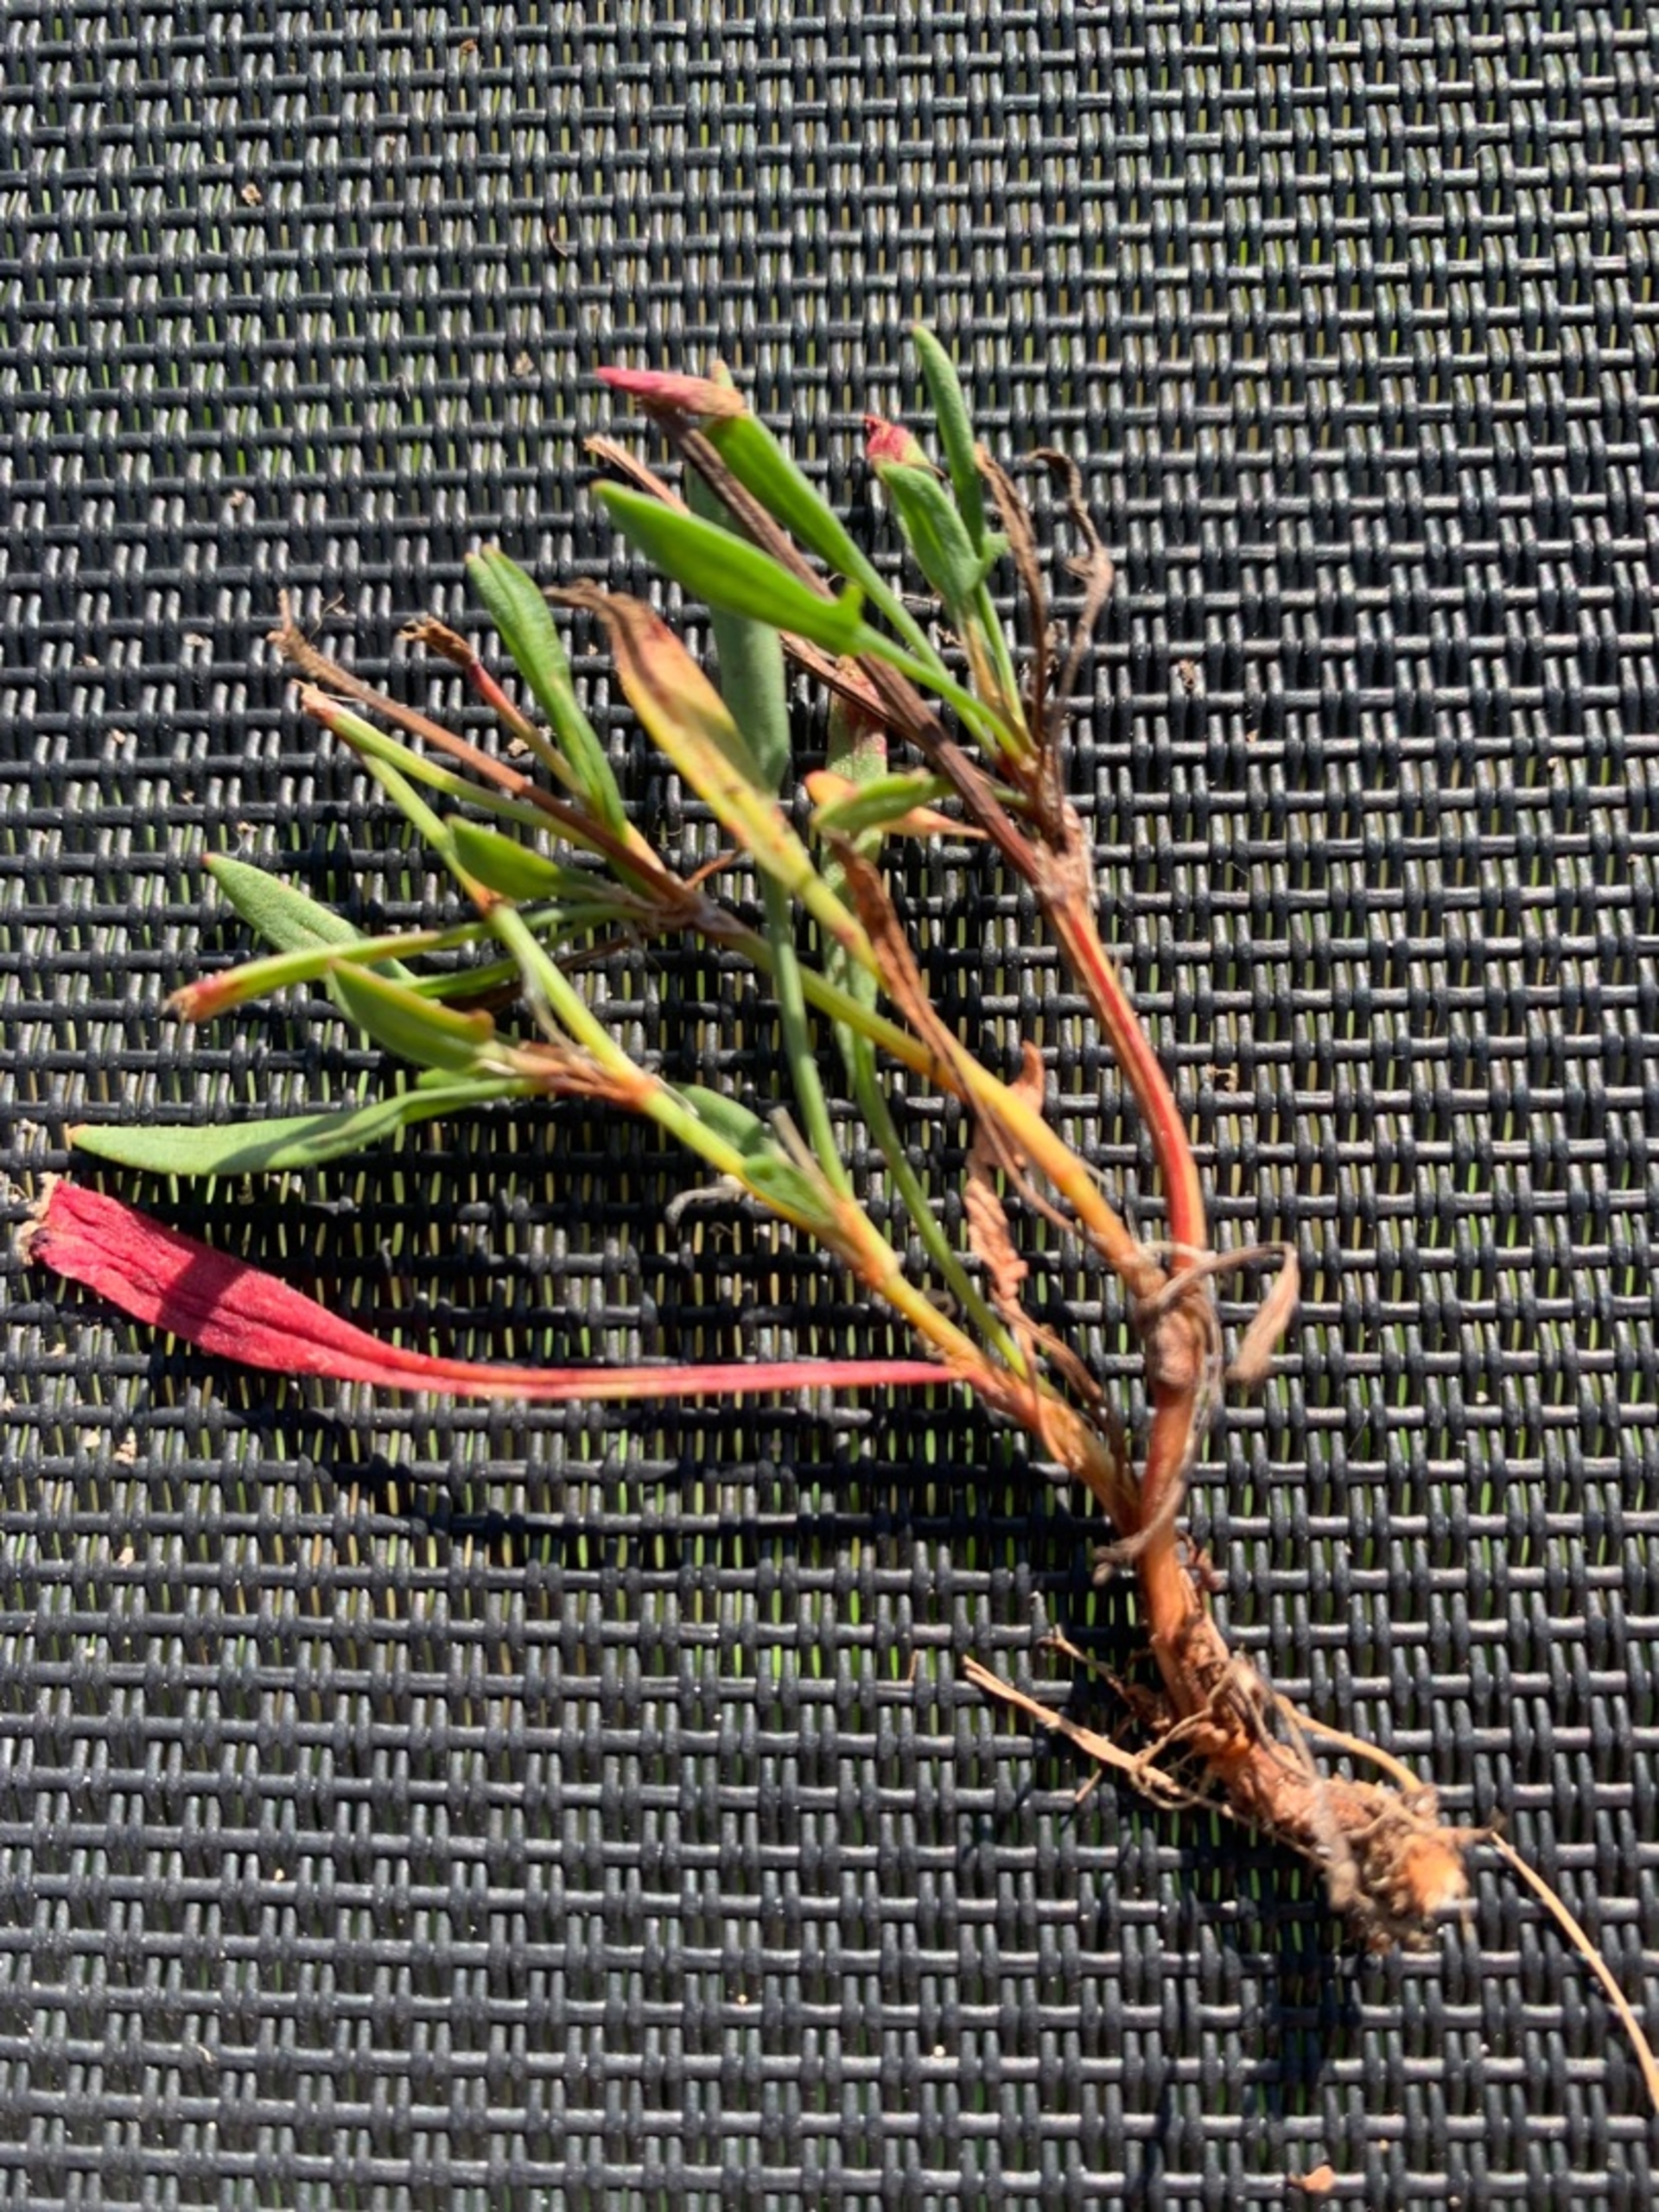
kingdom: Plantae
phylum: Tracheophyta
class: Magnoliopsida
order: Caryophyllales
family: Polygonaceae
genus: Rumex
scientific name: Rumex acetosella
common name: Rødknæ
